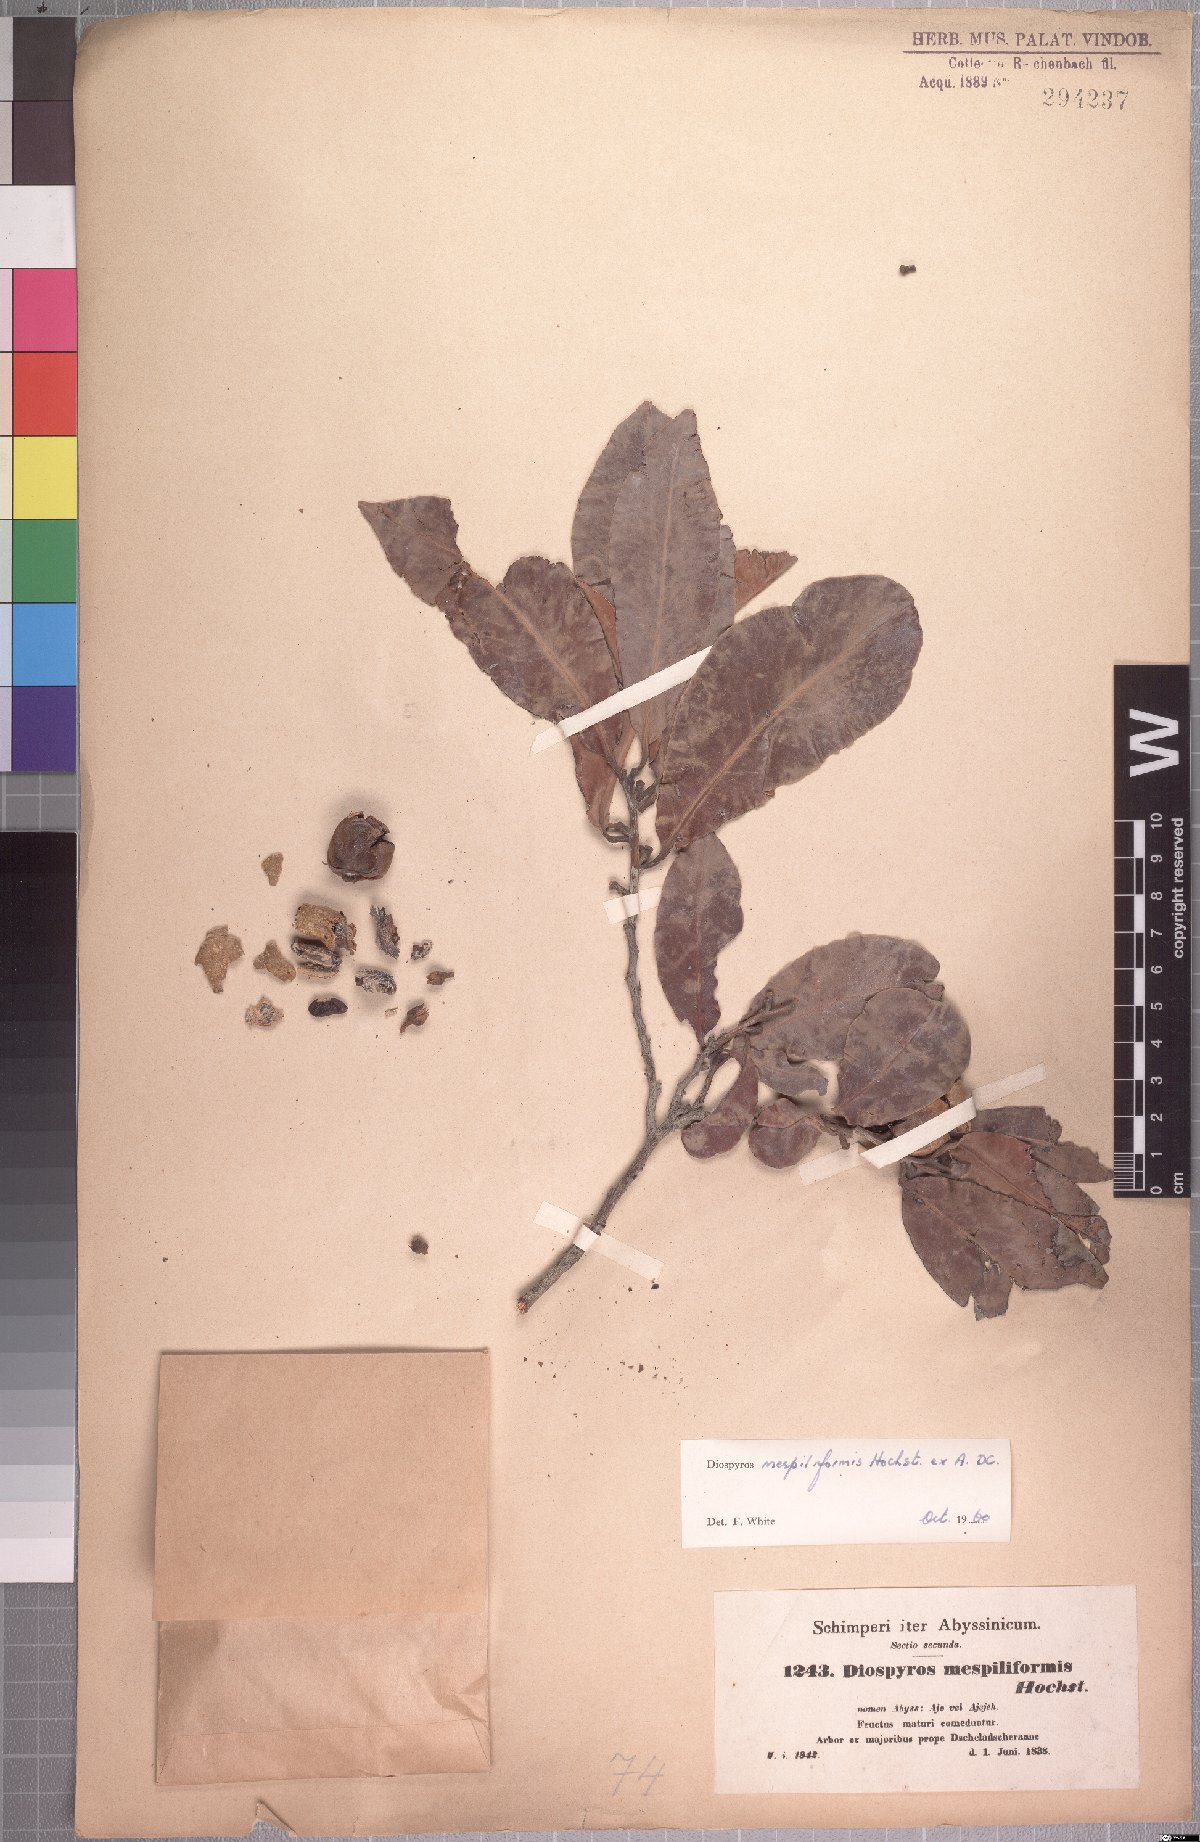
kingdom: Plantae
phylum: Tracheophyta
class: Magnoliopsida
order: Ericales
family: Ebenaceae
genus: Diospyros
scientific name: Diospyros mespiliformis
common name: Ebony diospyros
